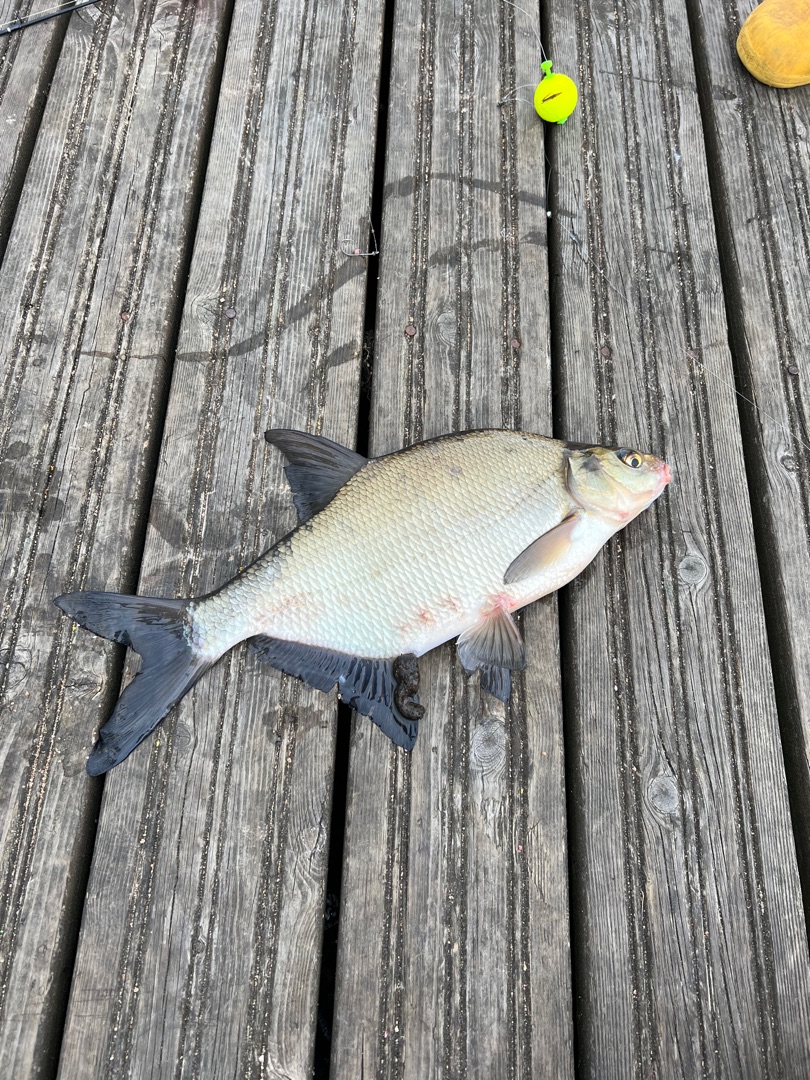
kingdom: Animalia
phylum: Chordata
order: Cypriniformes
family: Cyprinidae
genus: Abramis
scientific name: Abramis brama
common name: Brasen
